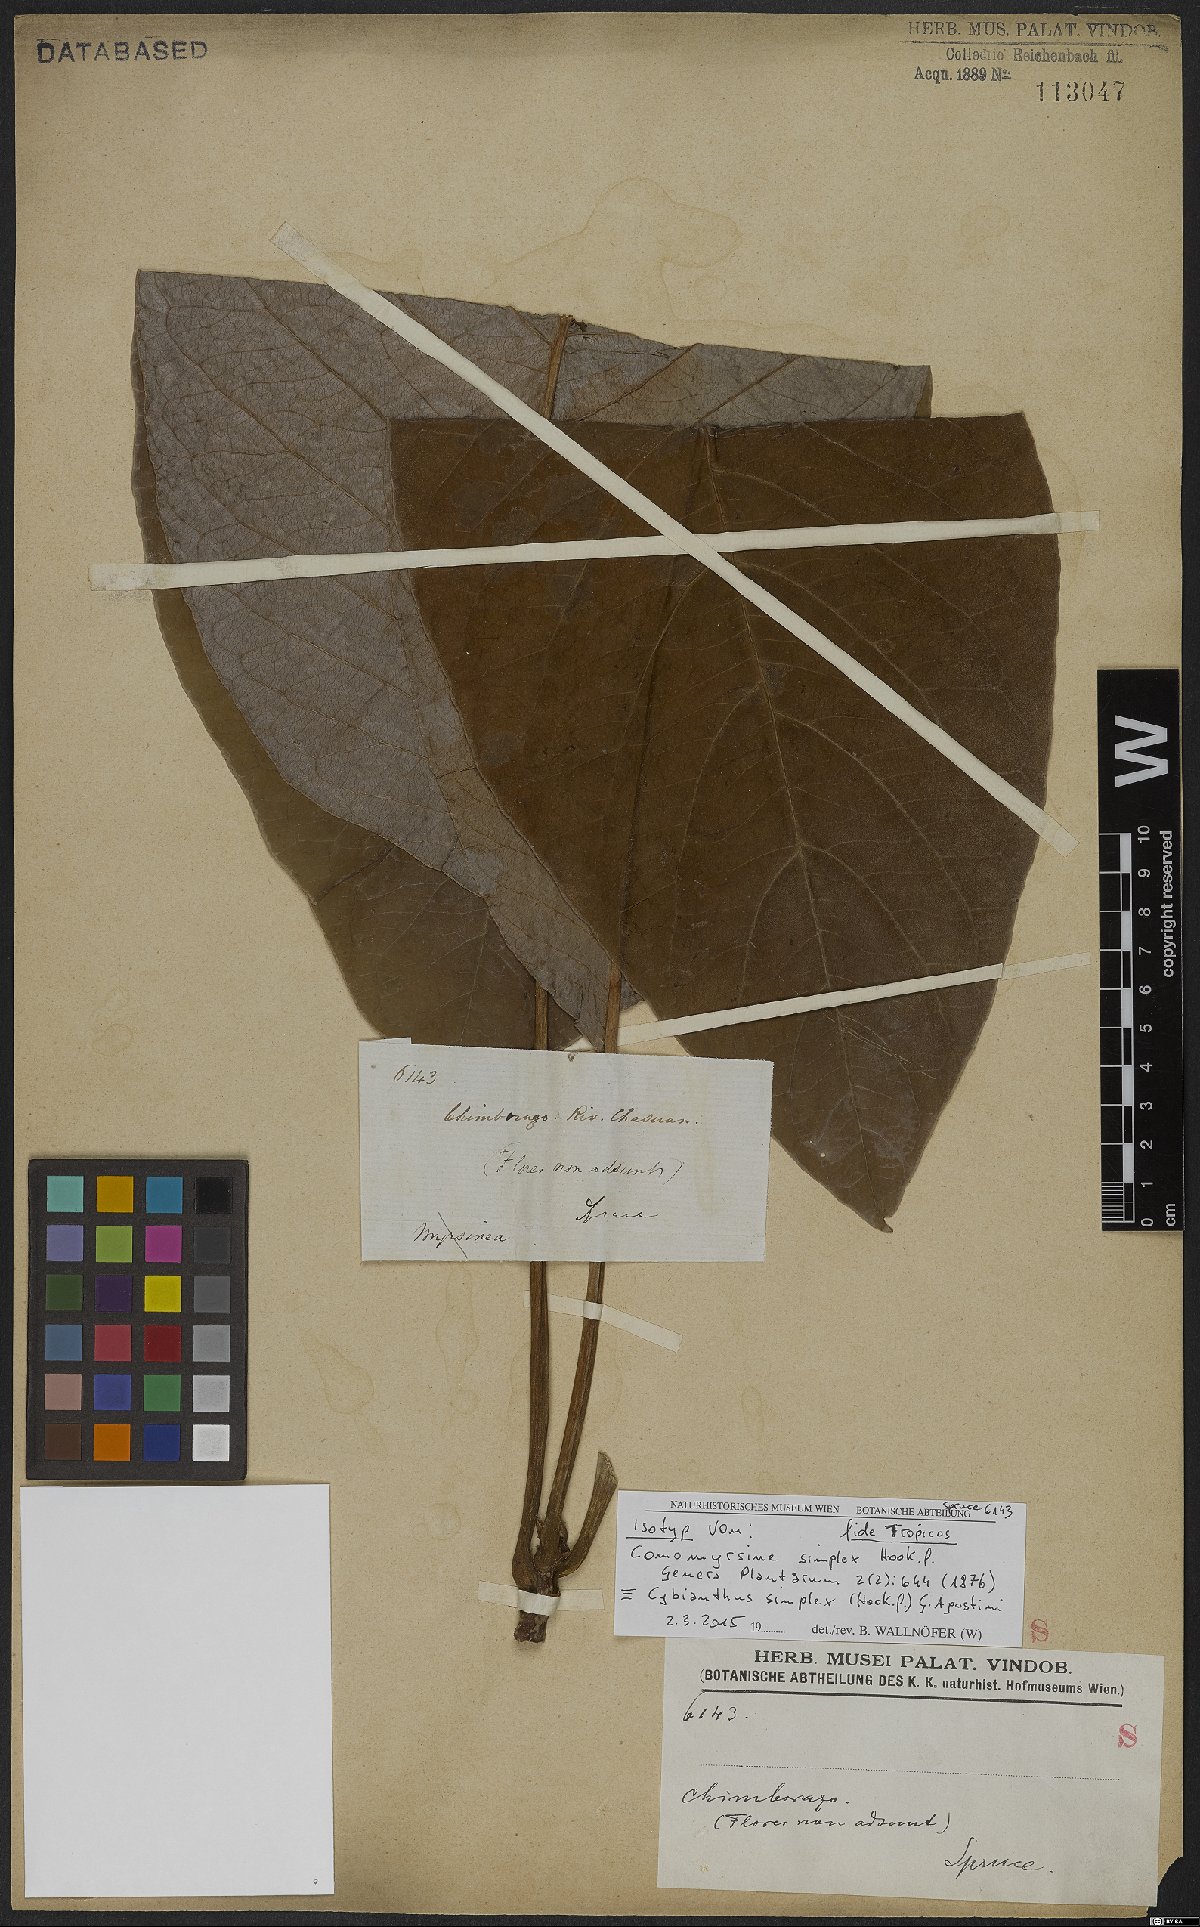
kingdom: Plantae
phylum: Tracheophyta
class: Magnoliopsida
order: Ericales
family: Primulaceae
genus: Cybianthus
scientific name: Cybianthus simplex
